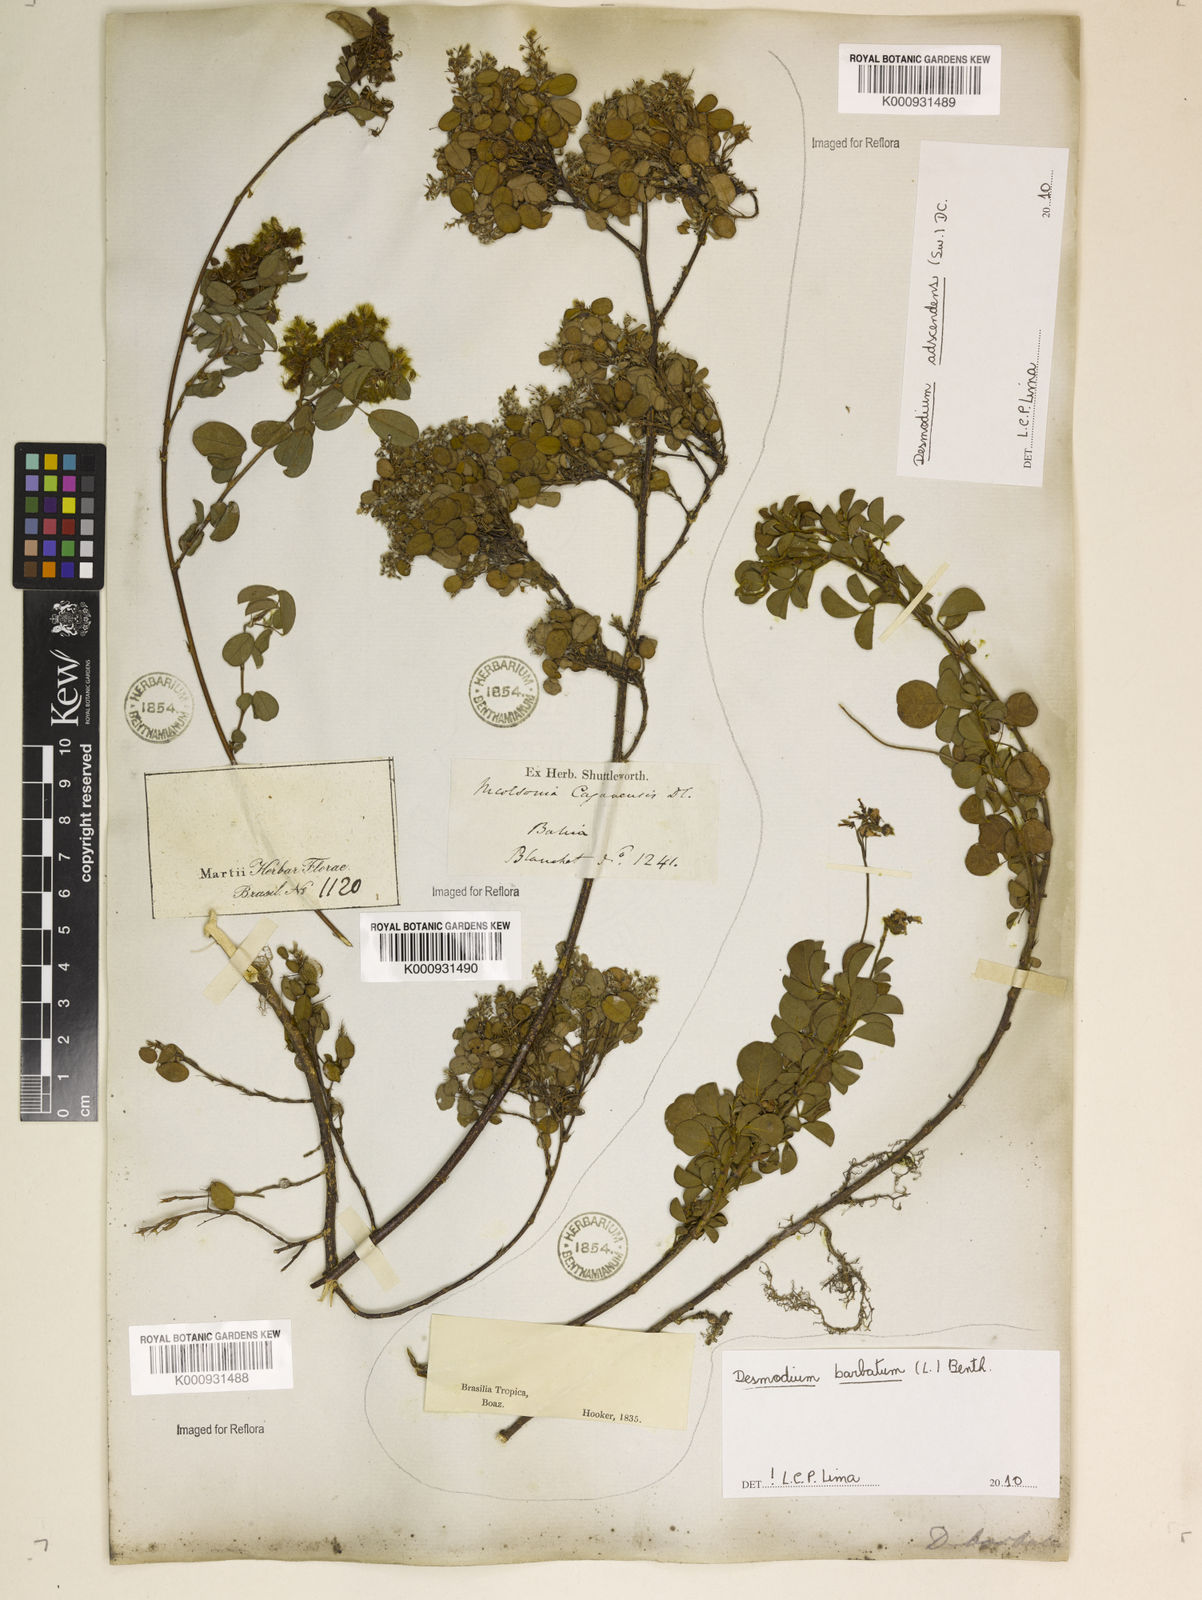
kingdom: Plantae
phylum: Tracheophyta
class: Magnoliopsida
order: Fabales
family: Fabaceae
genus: Grona
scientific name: Grona barbata
